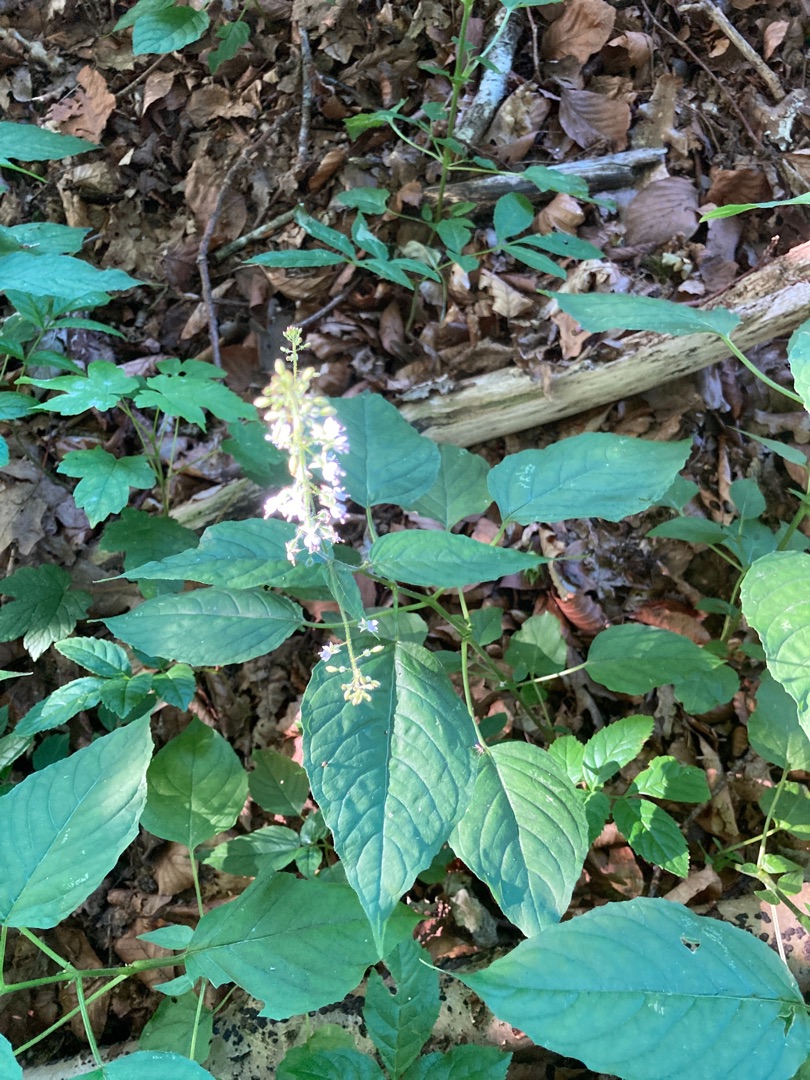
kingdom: Plantae
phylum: Tracheophyta
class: Magnoliopsida
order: Myrtales
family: Onagraceae
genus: Circaea
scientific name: Circaea lutetiana
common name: Dunet steffensurt
